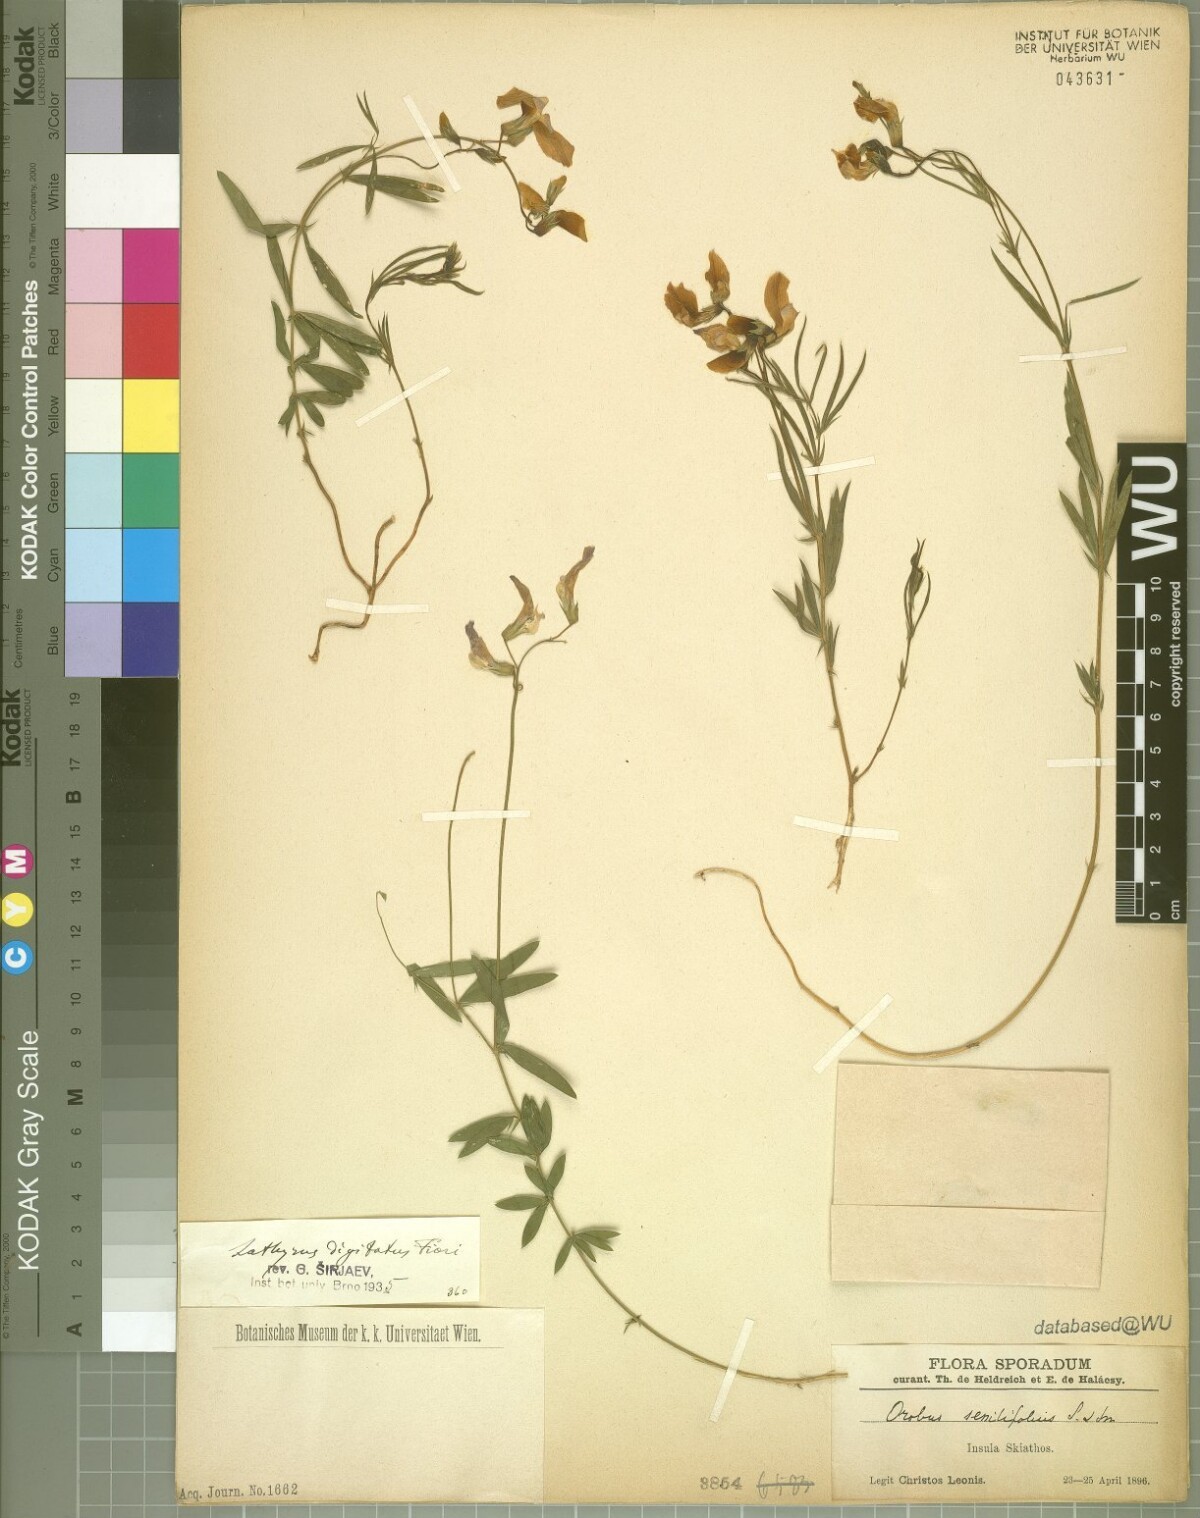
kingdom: Plantae
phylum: Tracheophyta
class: Magnoliopsida
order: Fabales
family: Fabaceae
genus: Lathyrus
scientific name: Lathyrus digitatus
